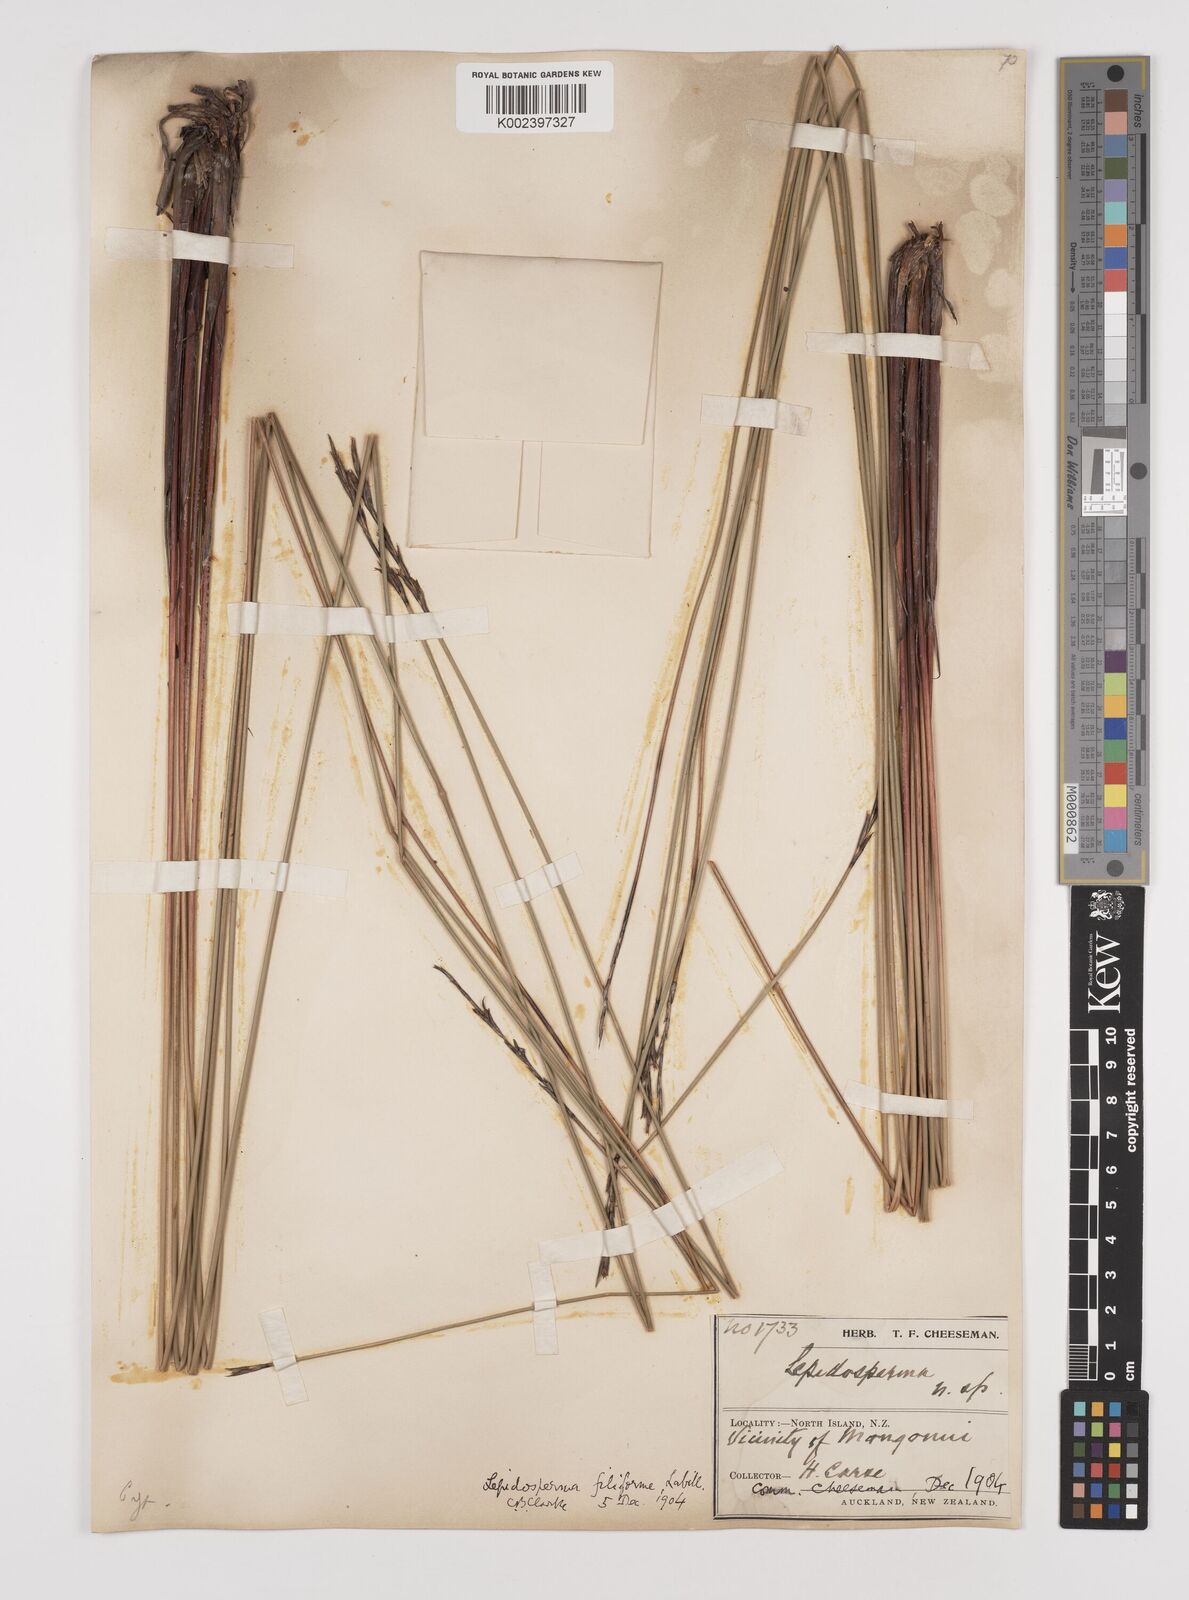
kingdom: Plantae
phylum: Tracheophyta
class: Liliopsida
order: Poales
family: Cyperaceae
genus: Lepidosperma
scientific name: Lepidosperma filiforme
